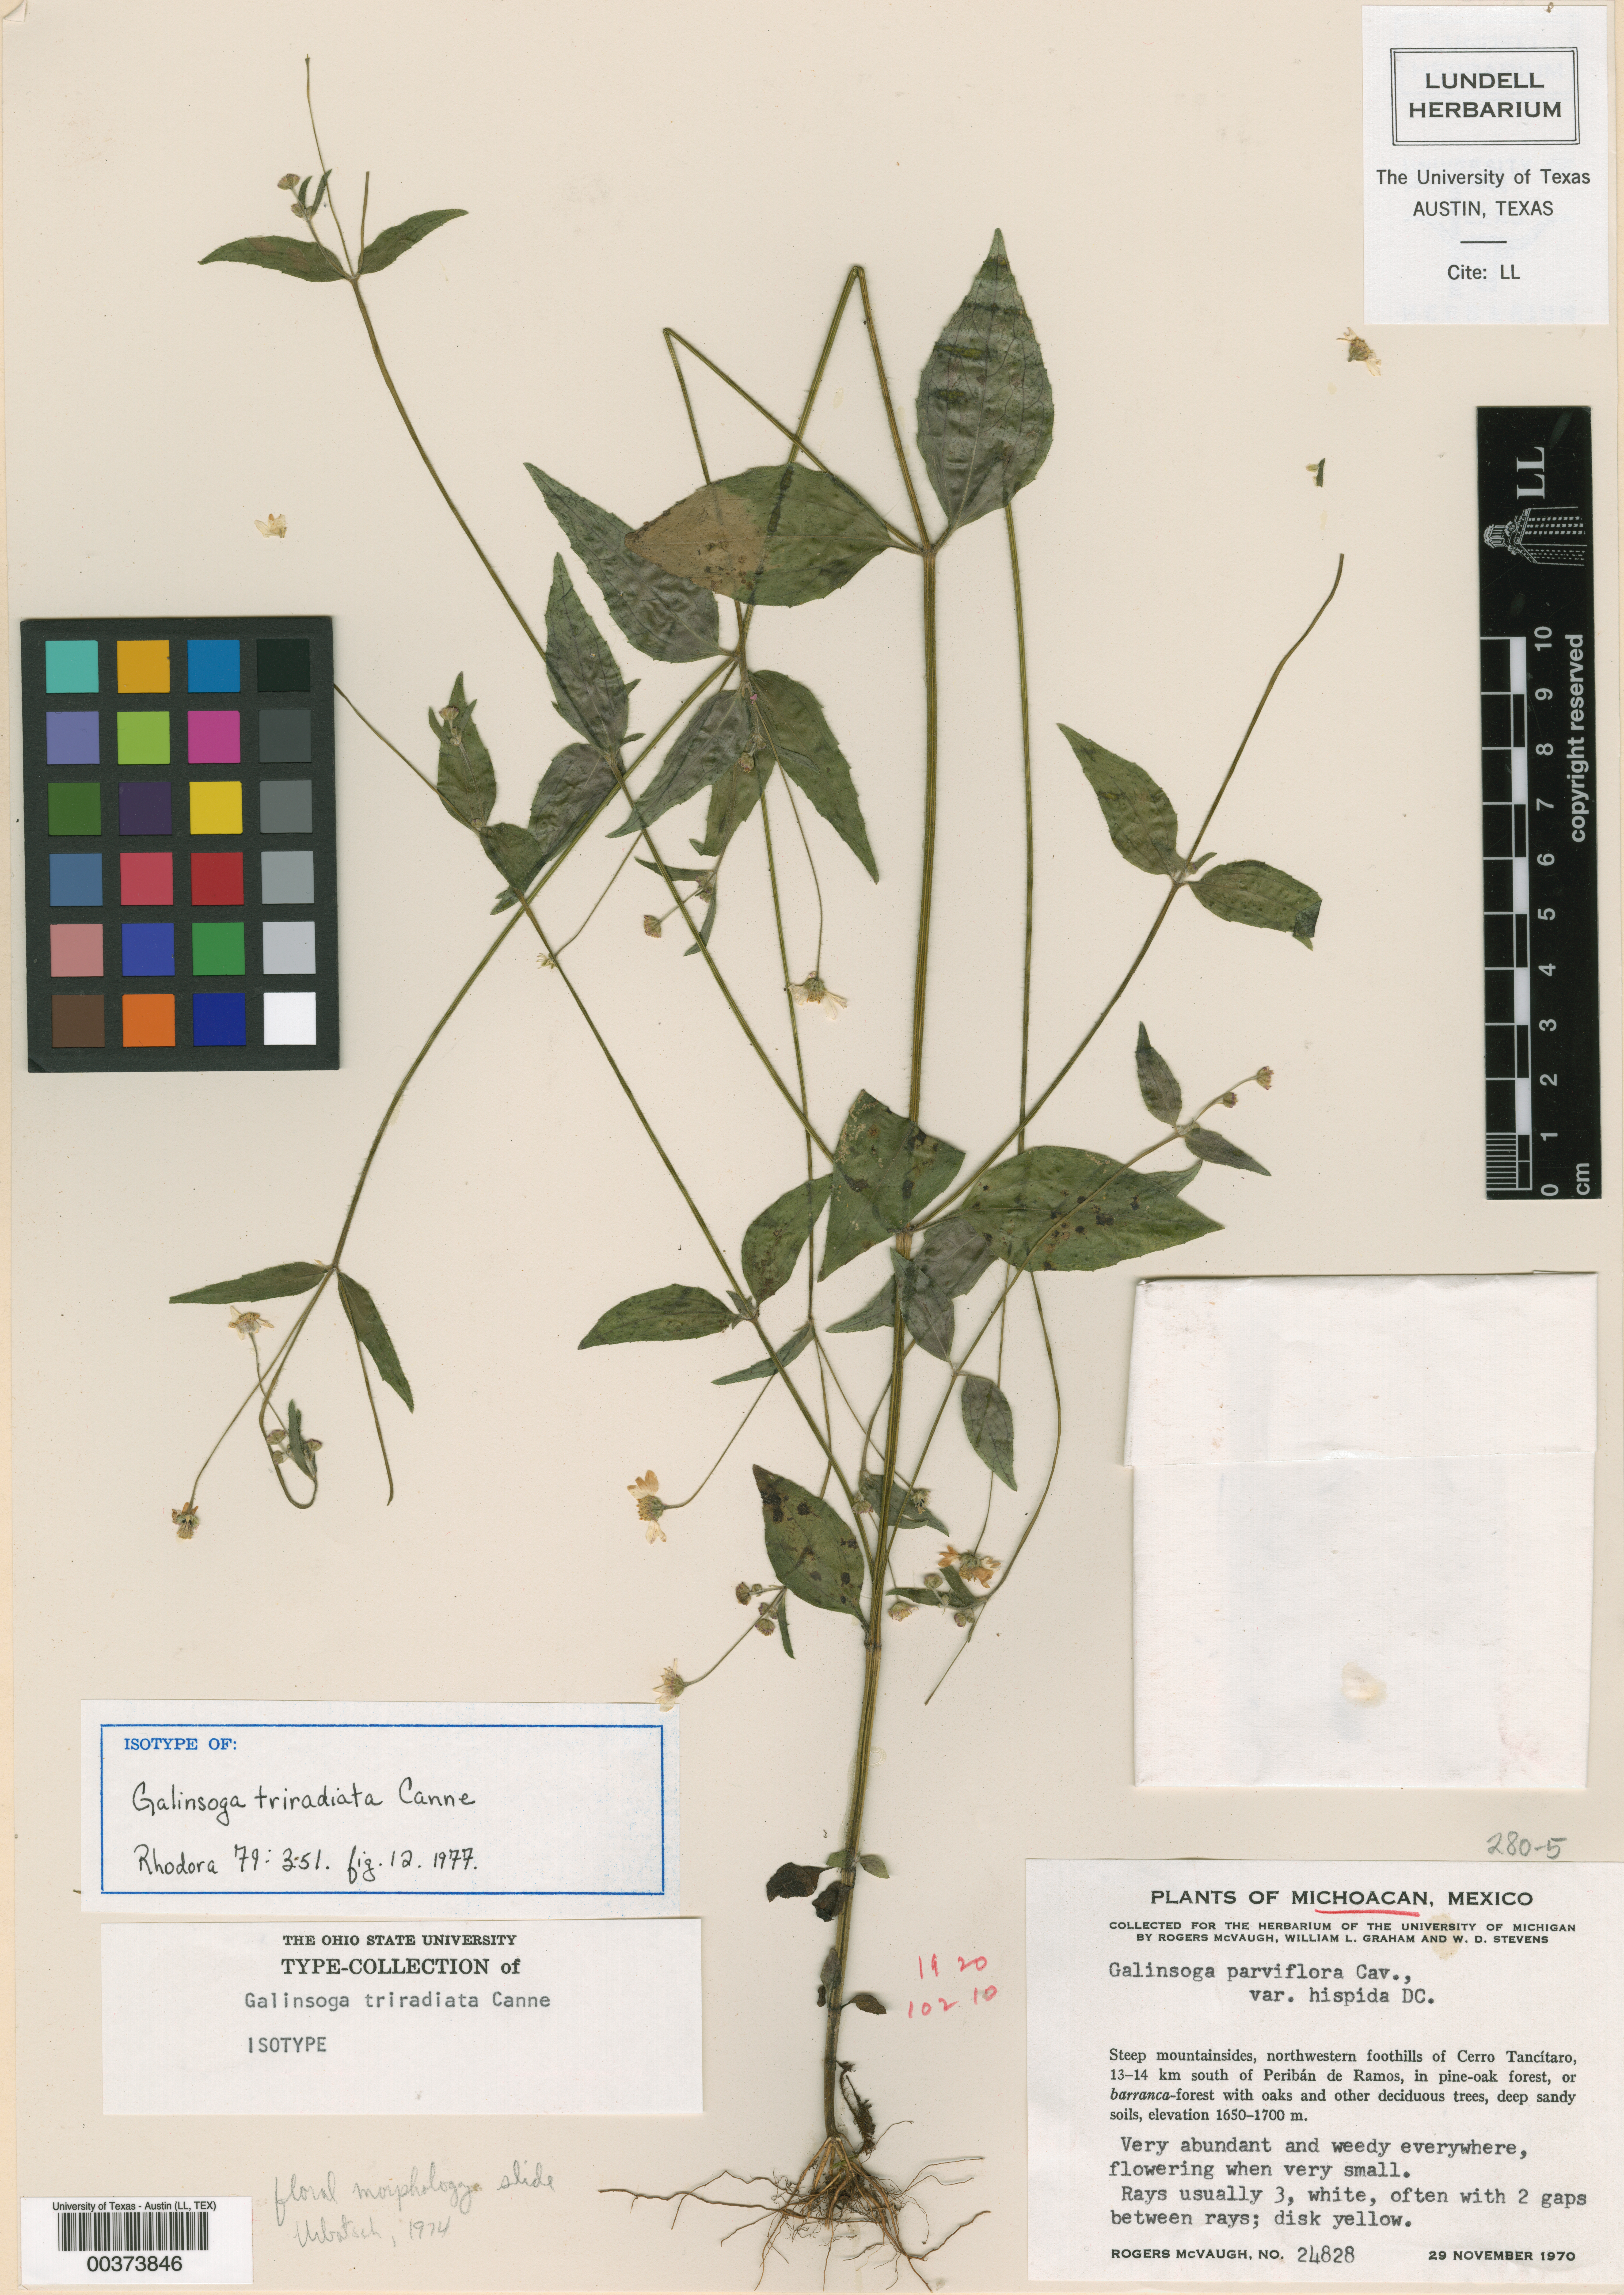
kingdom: Plantae
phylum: Tracheophyta
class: Magnoliopsida
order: Asterales
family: Asteraceae
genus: Galinsoga
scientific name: Galinsoga triradiata
